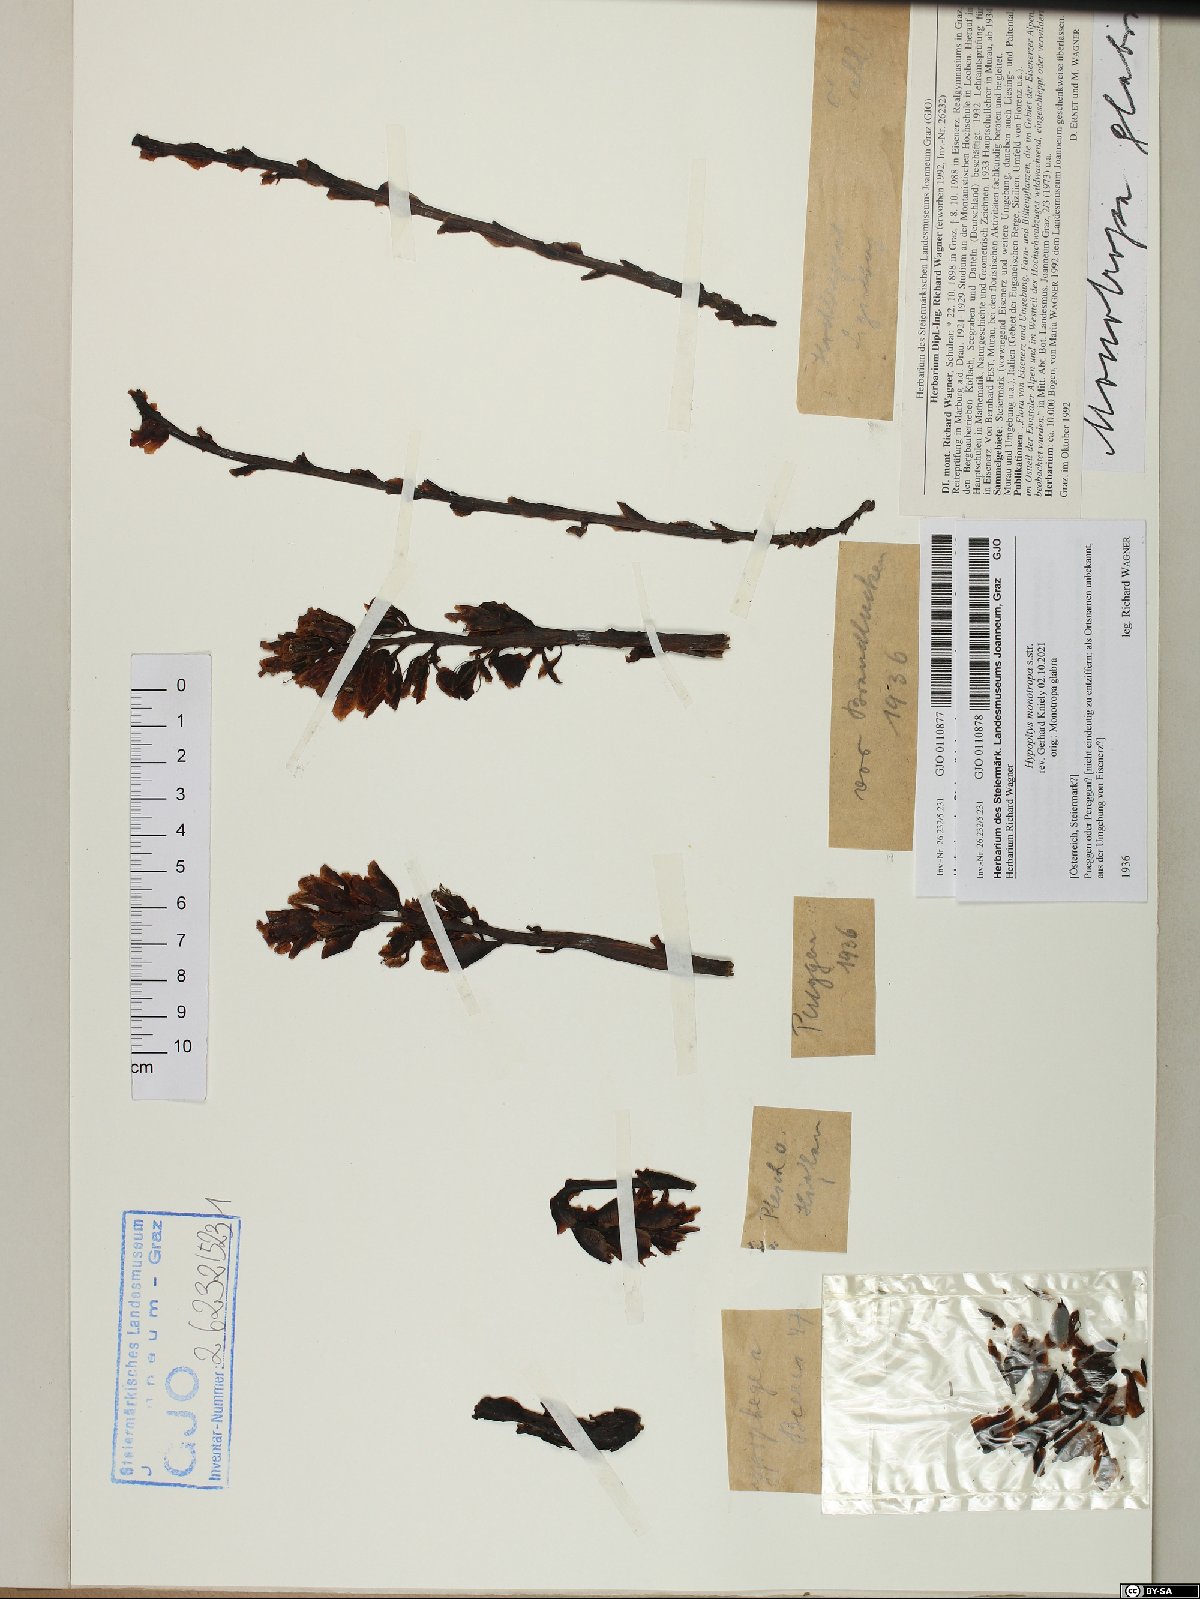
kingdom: Plantae
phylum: Tracheophyta
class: Magnoliopsida
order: Ericales
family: Ericaceae
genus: Hypopitys
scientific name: Hypopitys monotropa
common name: Yellow bird's-nest
